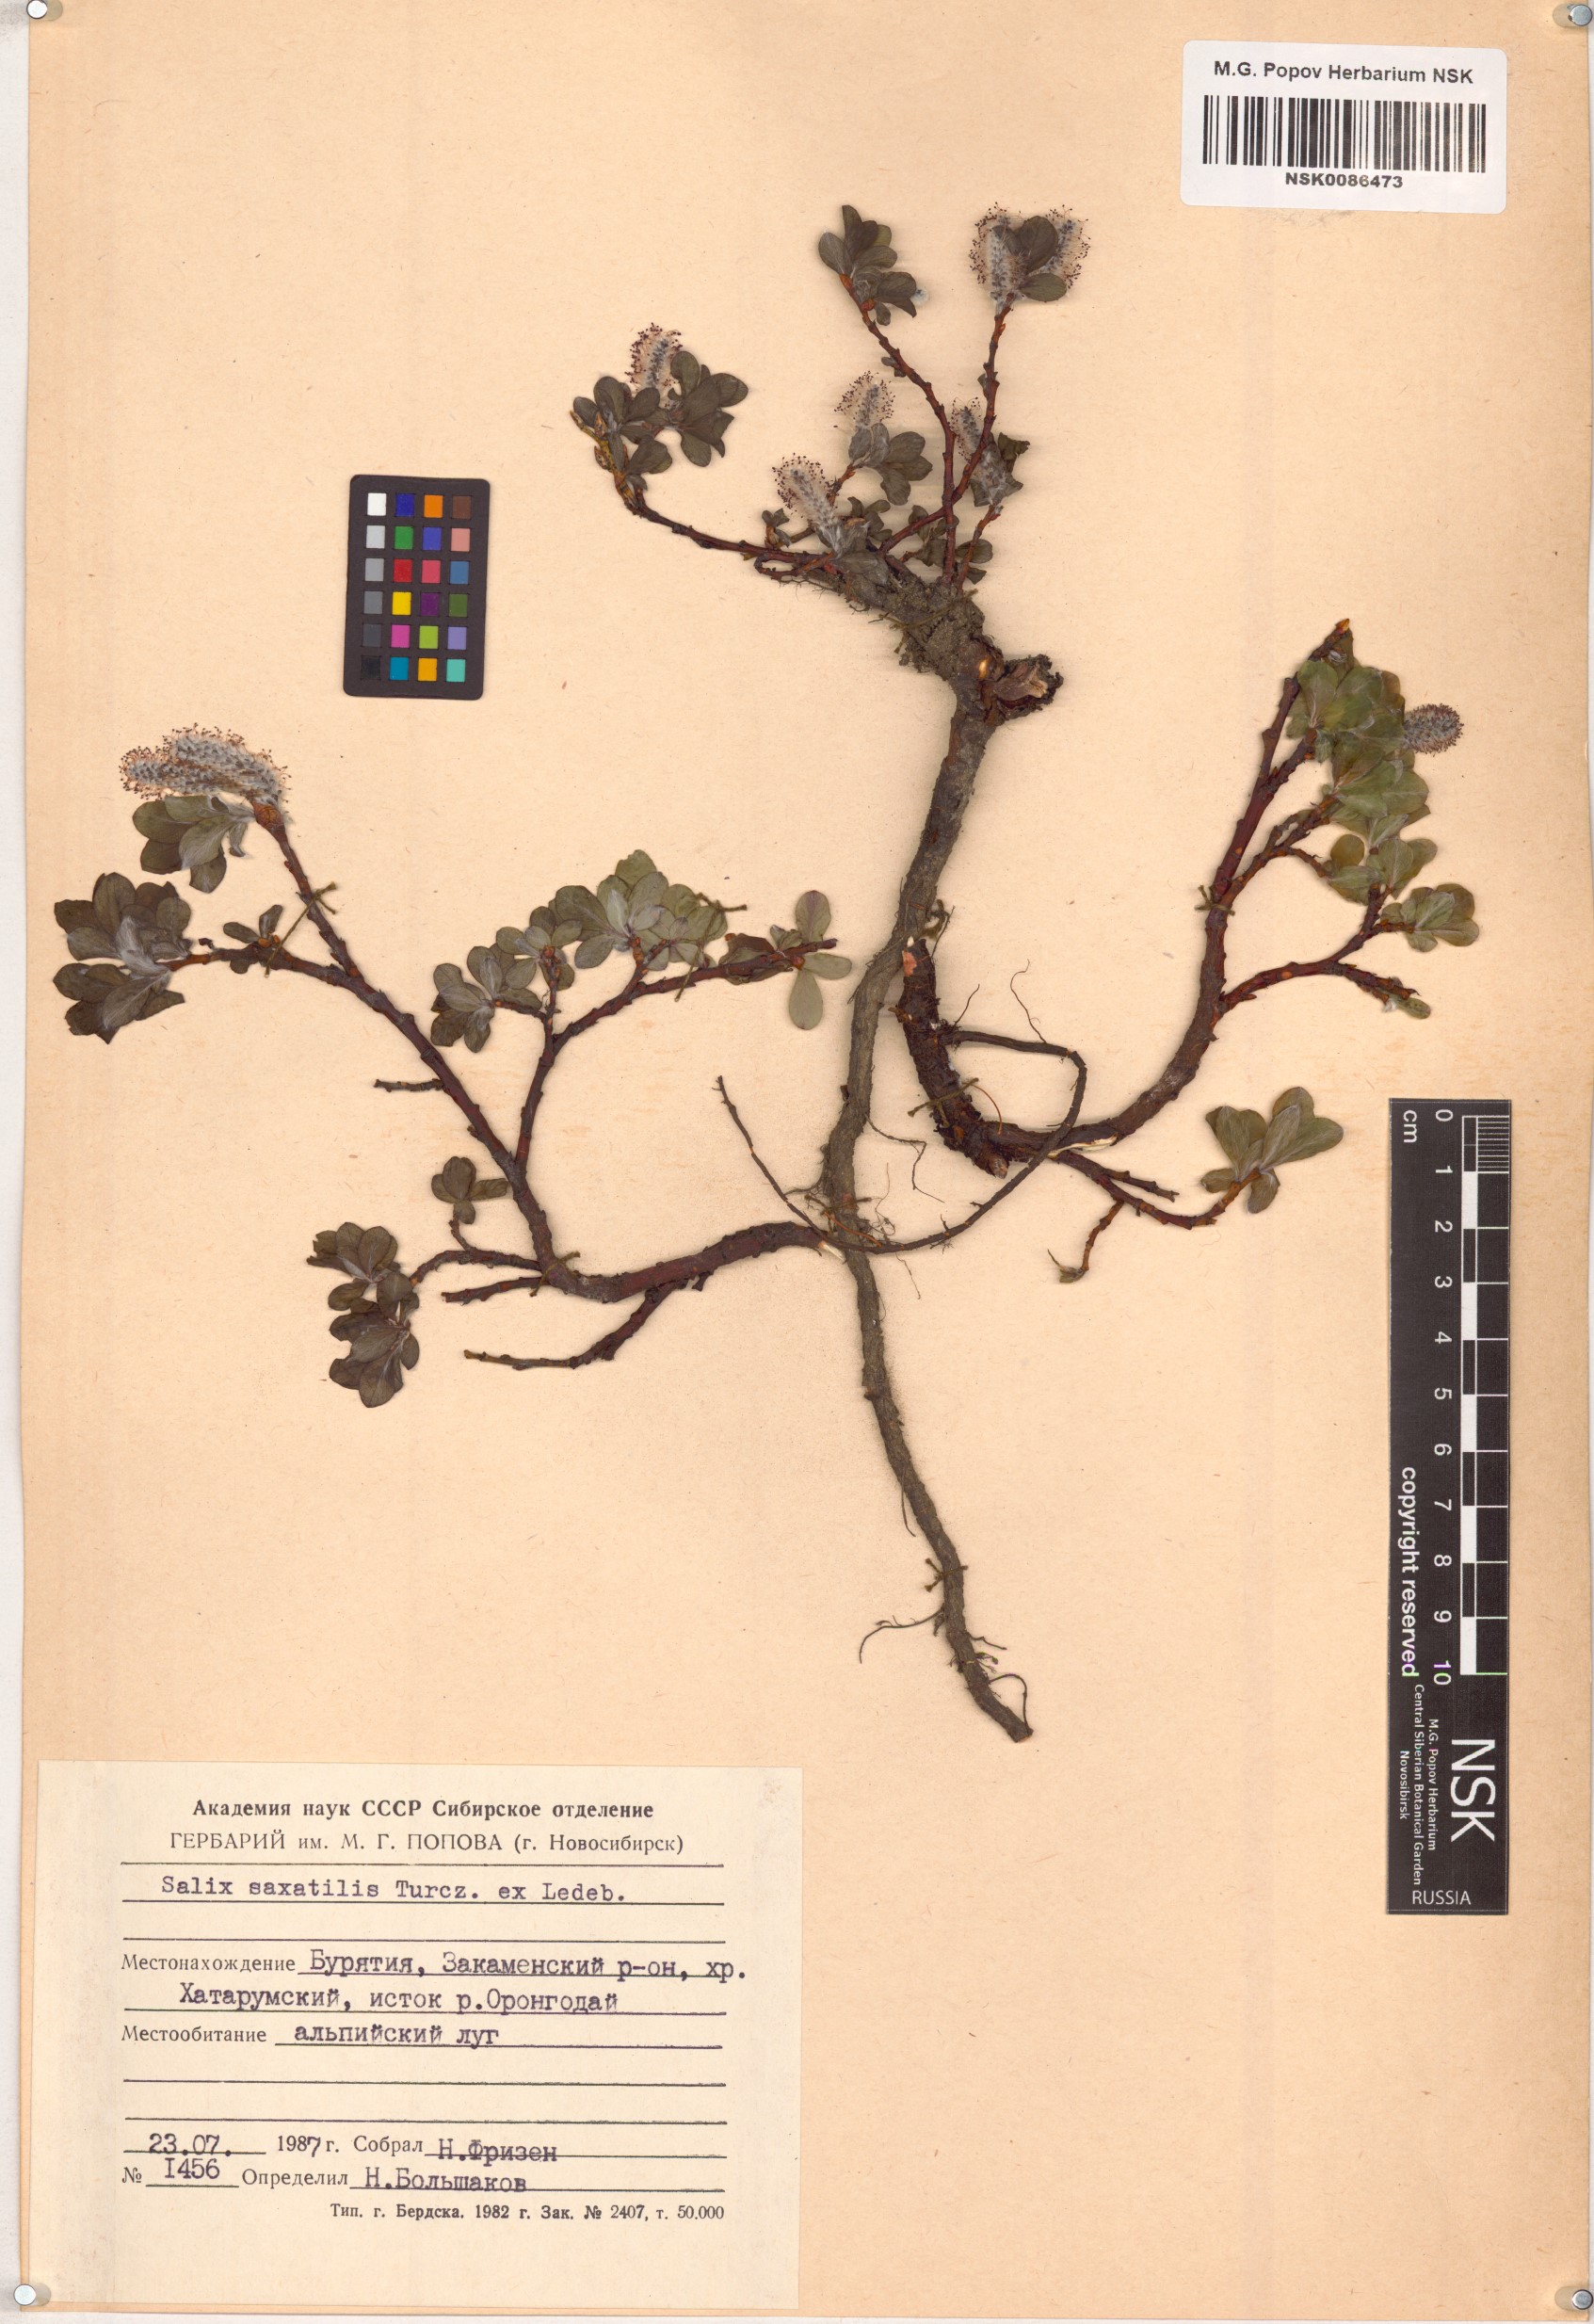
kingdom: Plantae
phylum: Tracheophyta
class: Magnoliopsida
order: Malpighiales
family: Salicaceae
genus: Salix
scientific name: Salix saxatilis
